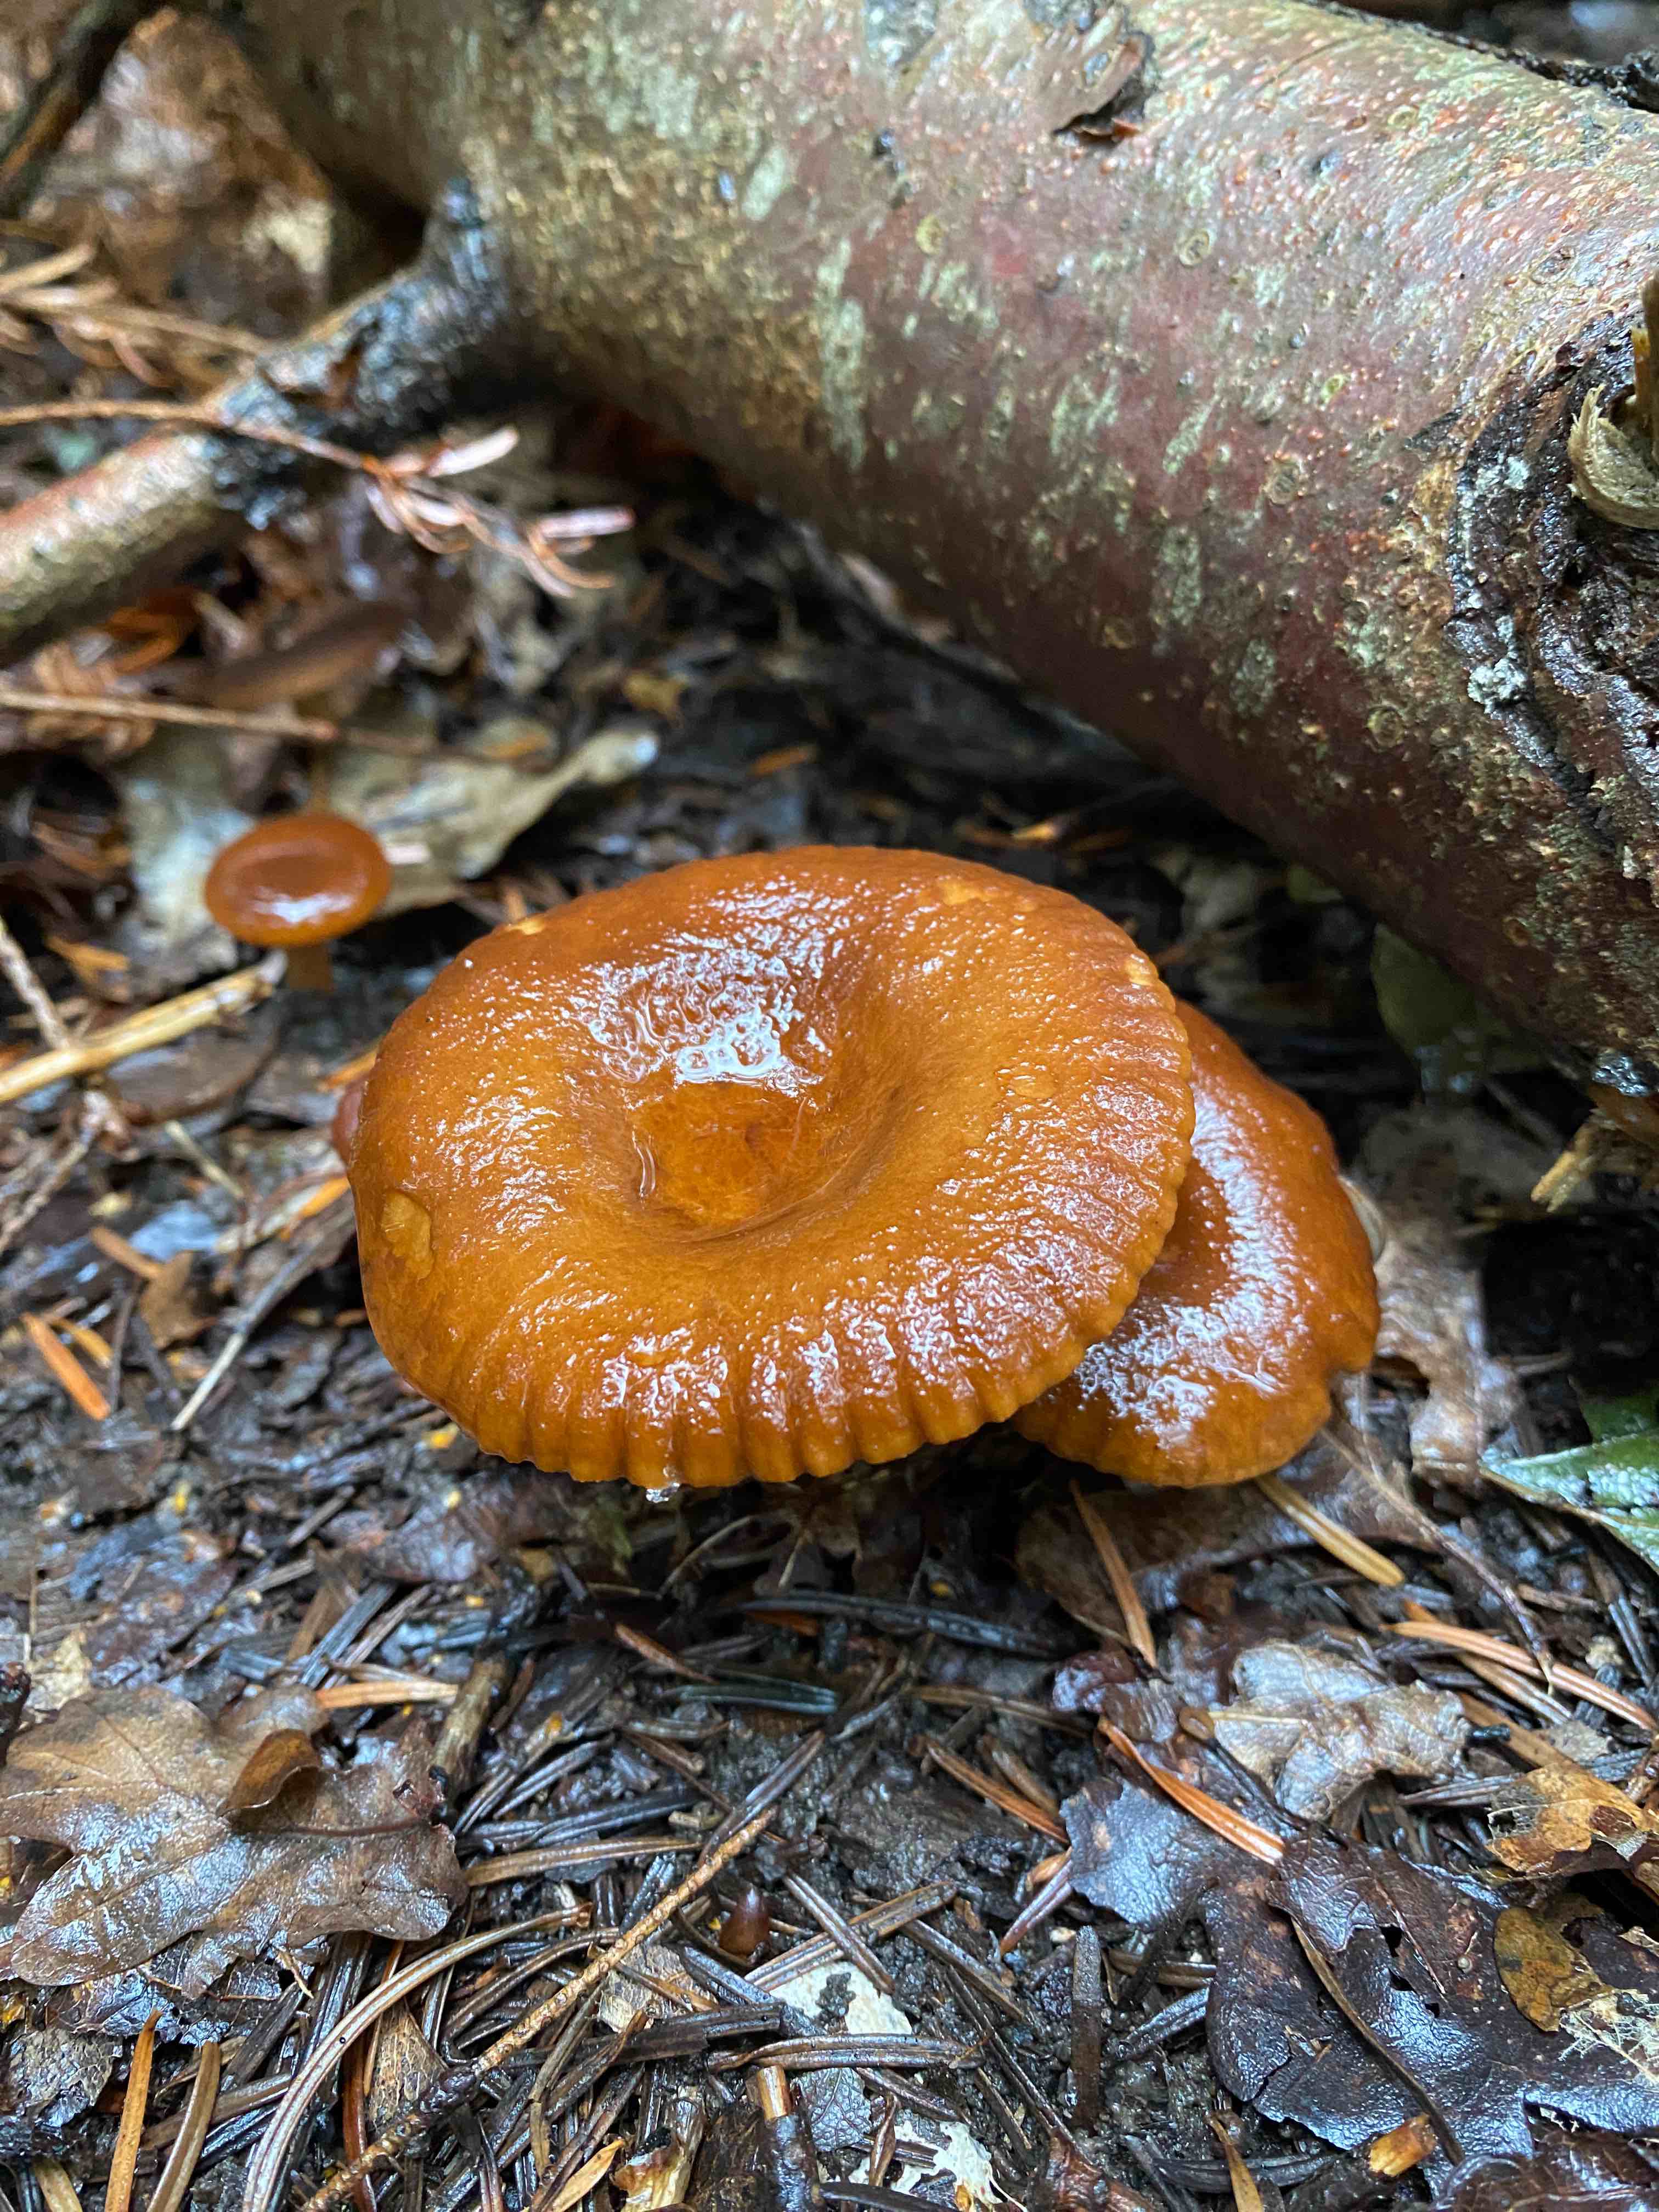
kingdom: Fungi
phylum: Basidiomycota
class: Agaricomycetes
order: Russulales
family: Russulaceae
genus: Lactarius
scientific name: Lactarius
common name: mælkehat
